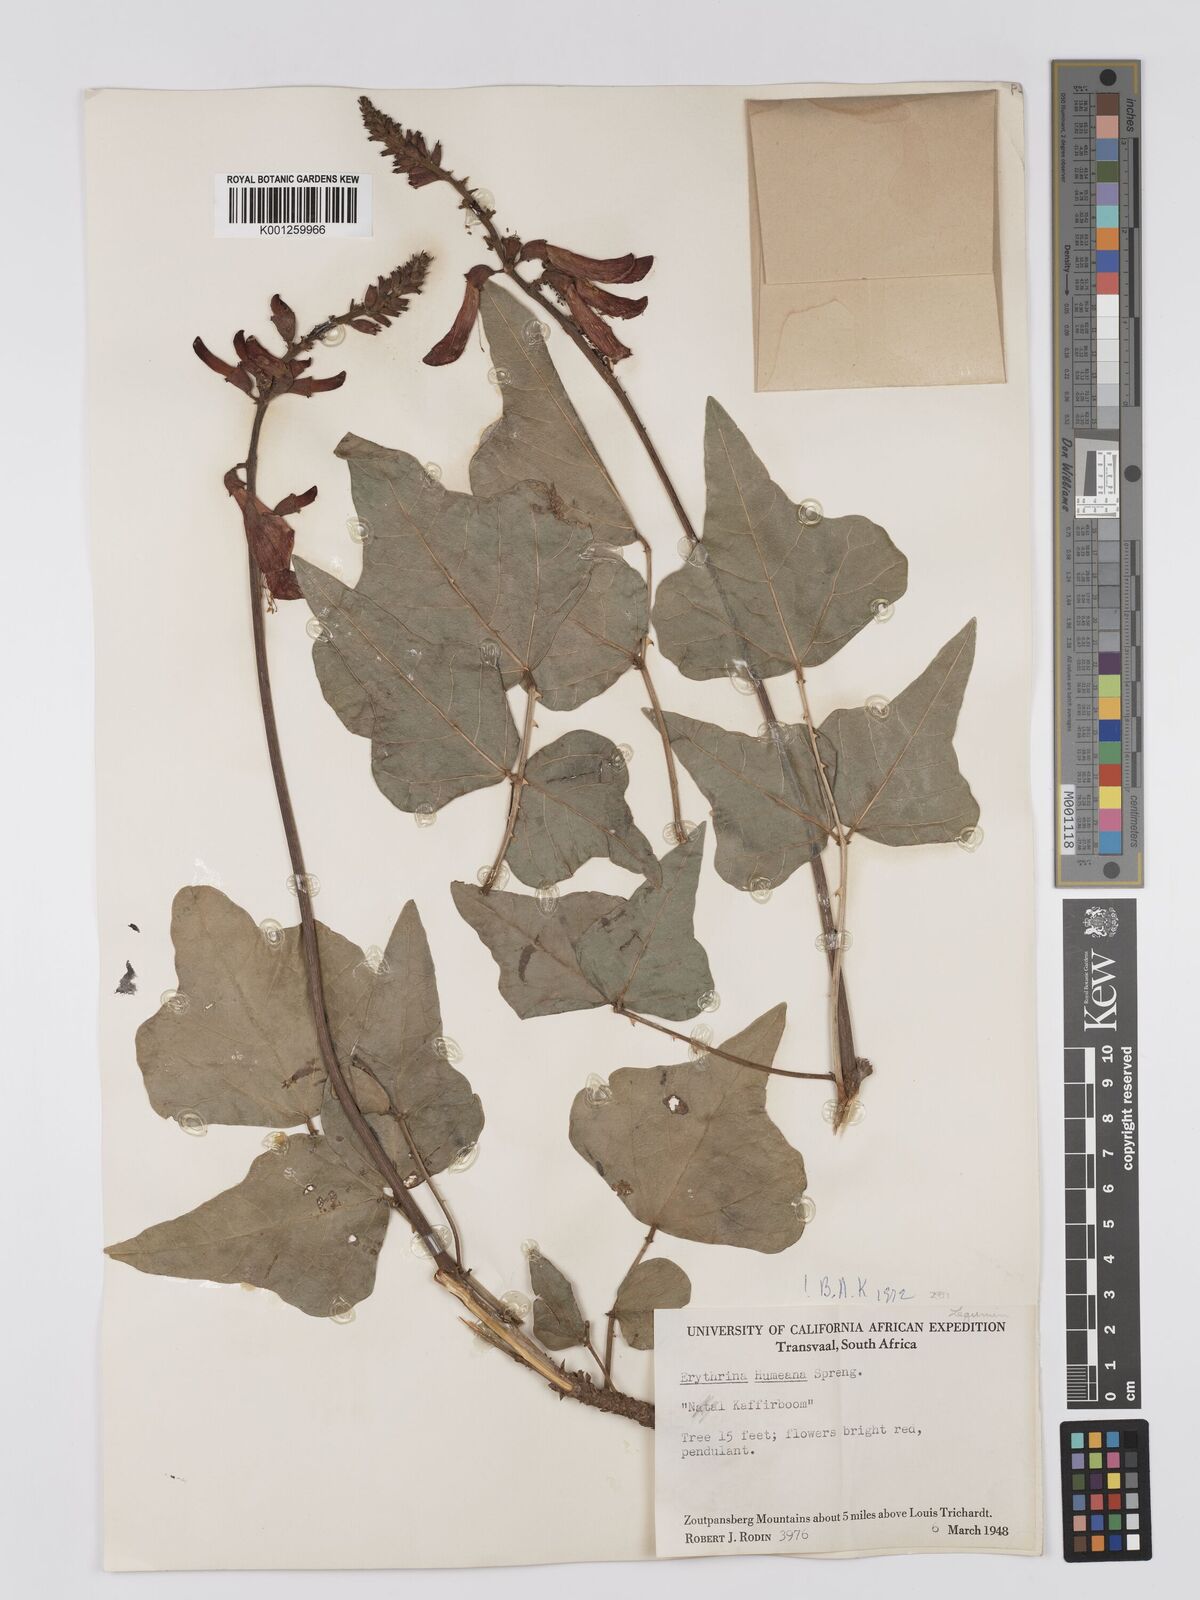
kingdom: Plantae
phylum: Tracheophyta
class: Magnoliopsida
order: Fabales
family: Fabaceae
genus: Erythrina
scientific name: Erythrina humeana
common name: Dwarf coral tree
